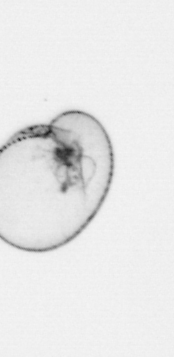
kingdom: Chromista
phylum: Myzozoa
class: Dinophyceae
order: Noctilucales
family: Noctilucaceae
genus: Noctiluca
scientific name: Noctiluca scintillans
